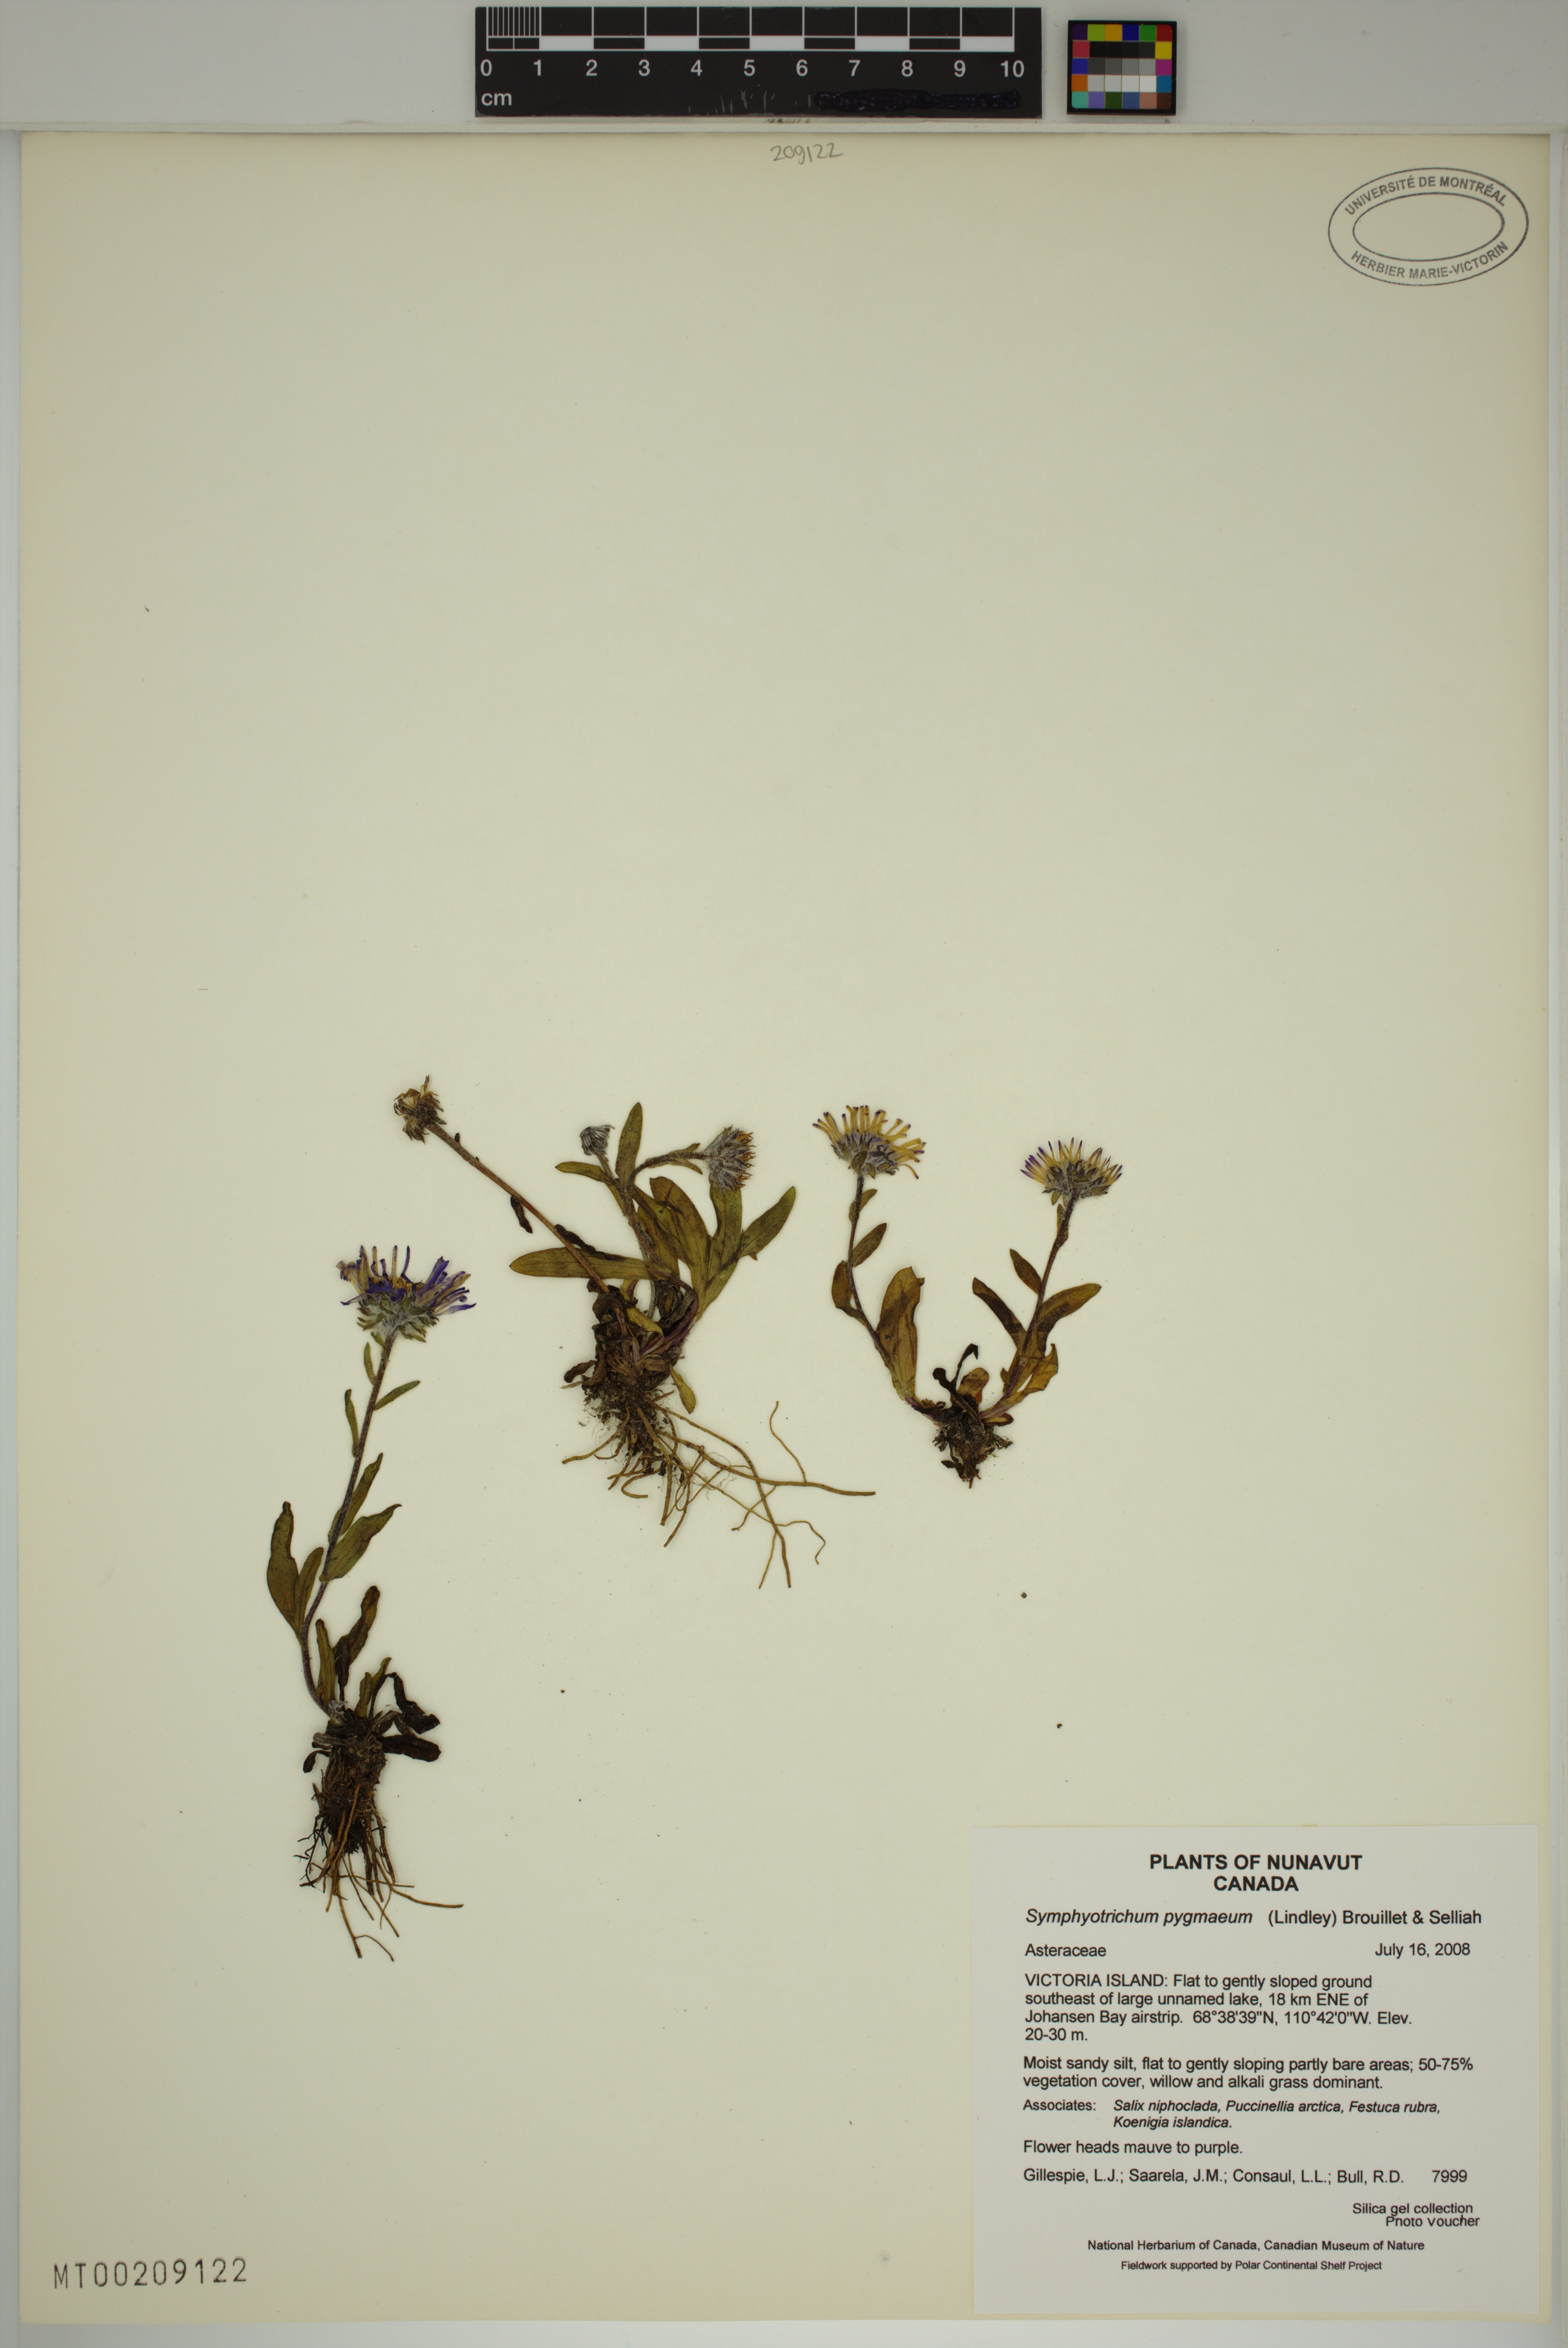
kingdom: Plantae
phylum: Tracheophyta
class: Magnoliopsida
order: Asterales
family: Asteraceae
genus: Symphyotrichum
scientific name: Symphyotrichum pygmaeum
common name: Pygmy aster
